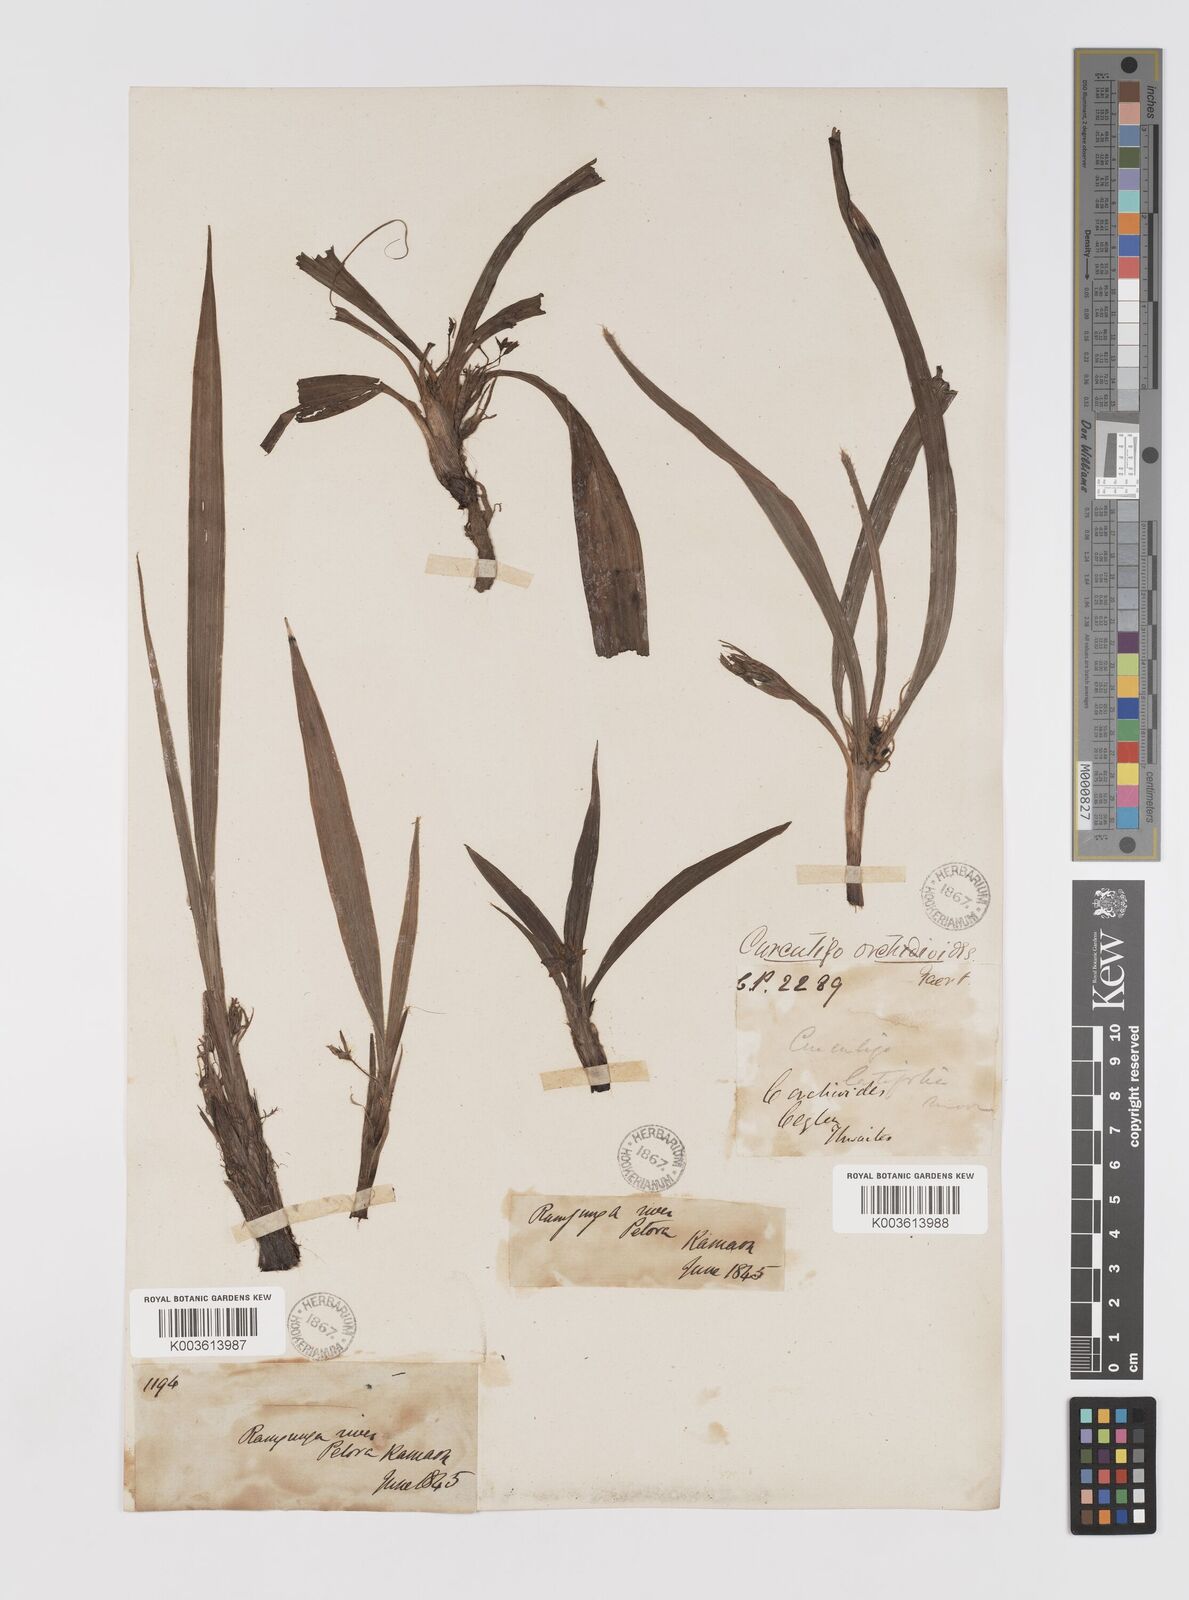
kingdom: Plantae
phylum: Tracheophyta
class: Liliopsida
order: Asparagales
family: Hypoxidaceae
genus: Curculigo
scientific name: Curculigo ensifolia
